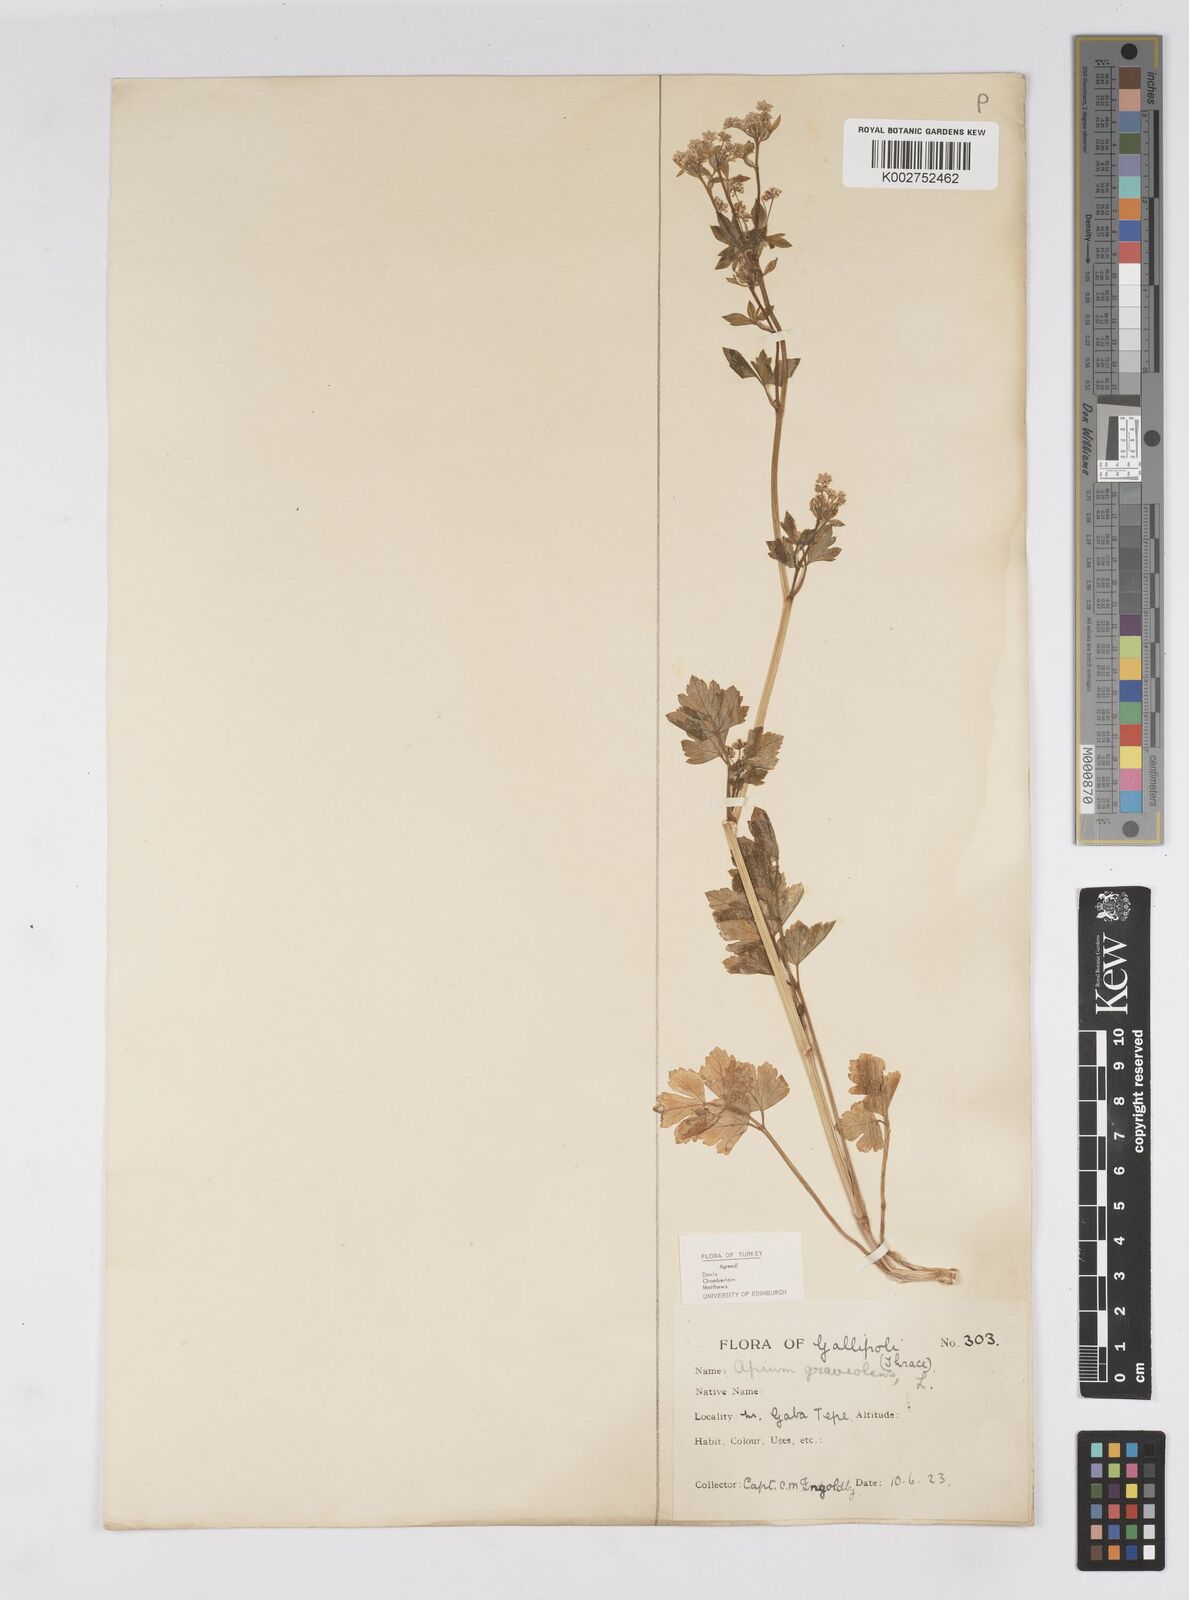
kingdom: Plantae
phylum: Tracheophyta
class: Magnoliopsida
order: Apiales
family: Apiaceae
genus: Apium
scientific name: Apium graveolens
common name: Wild celery
